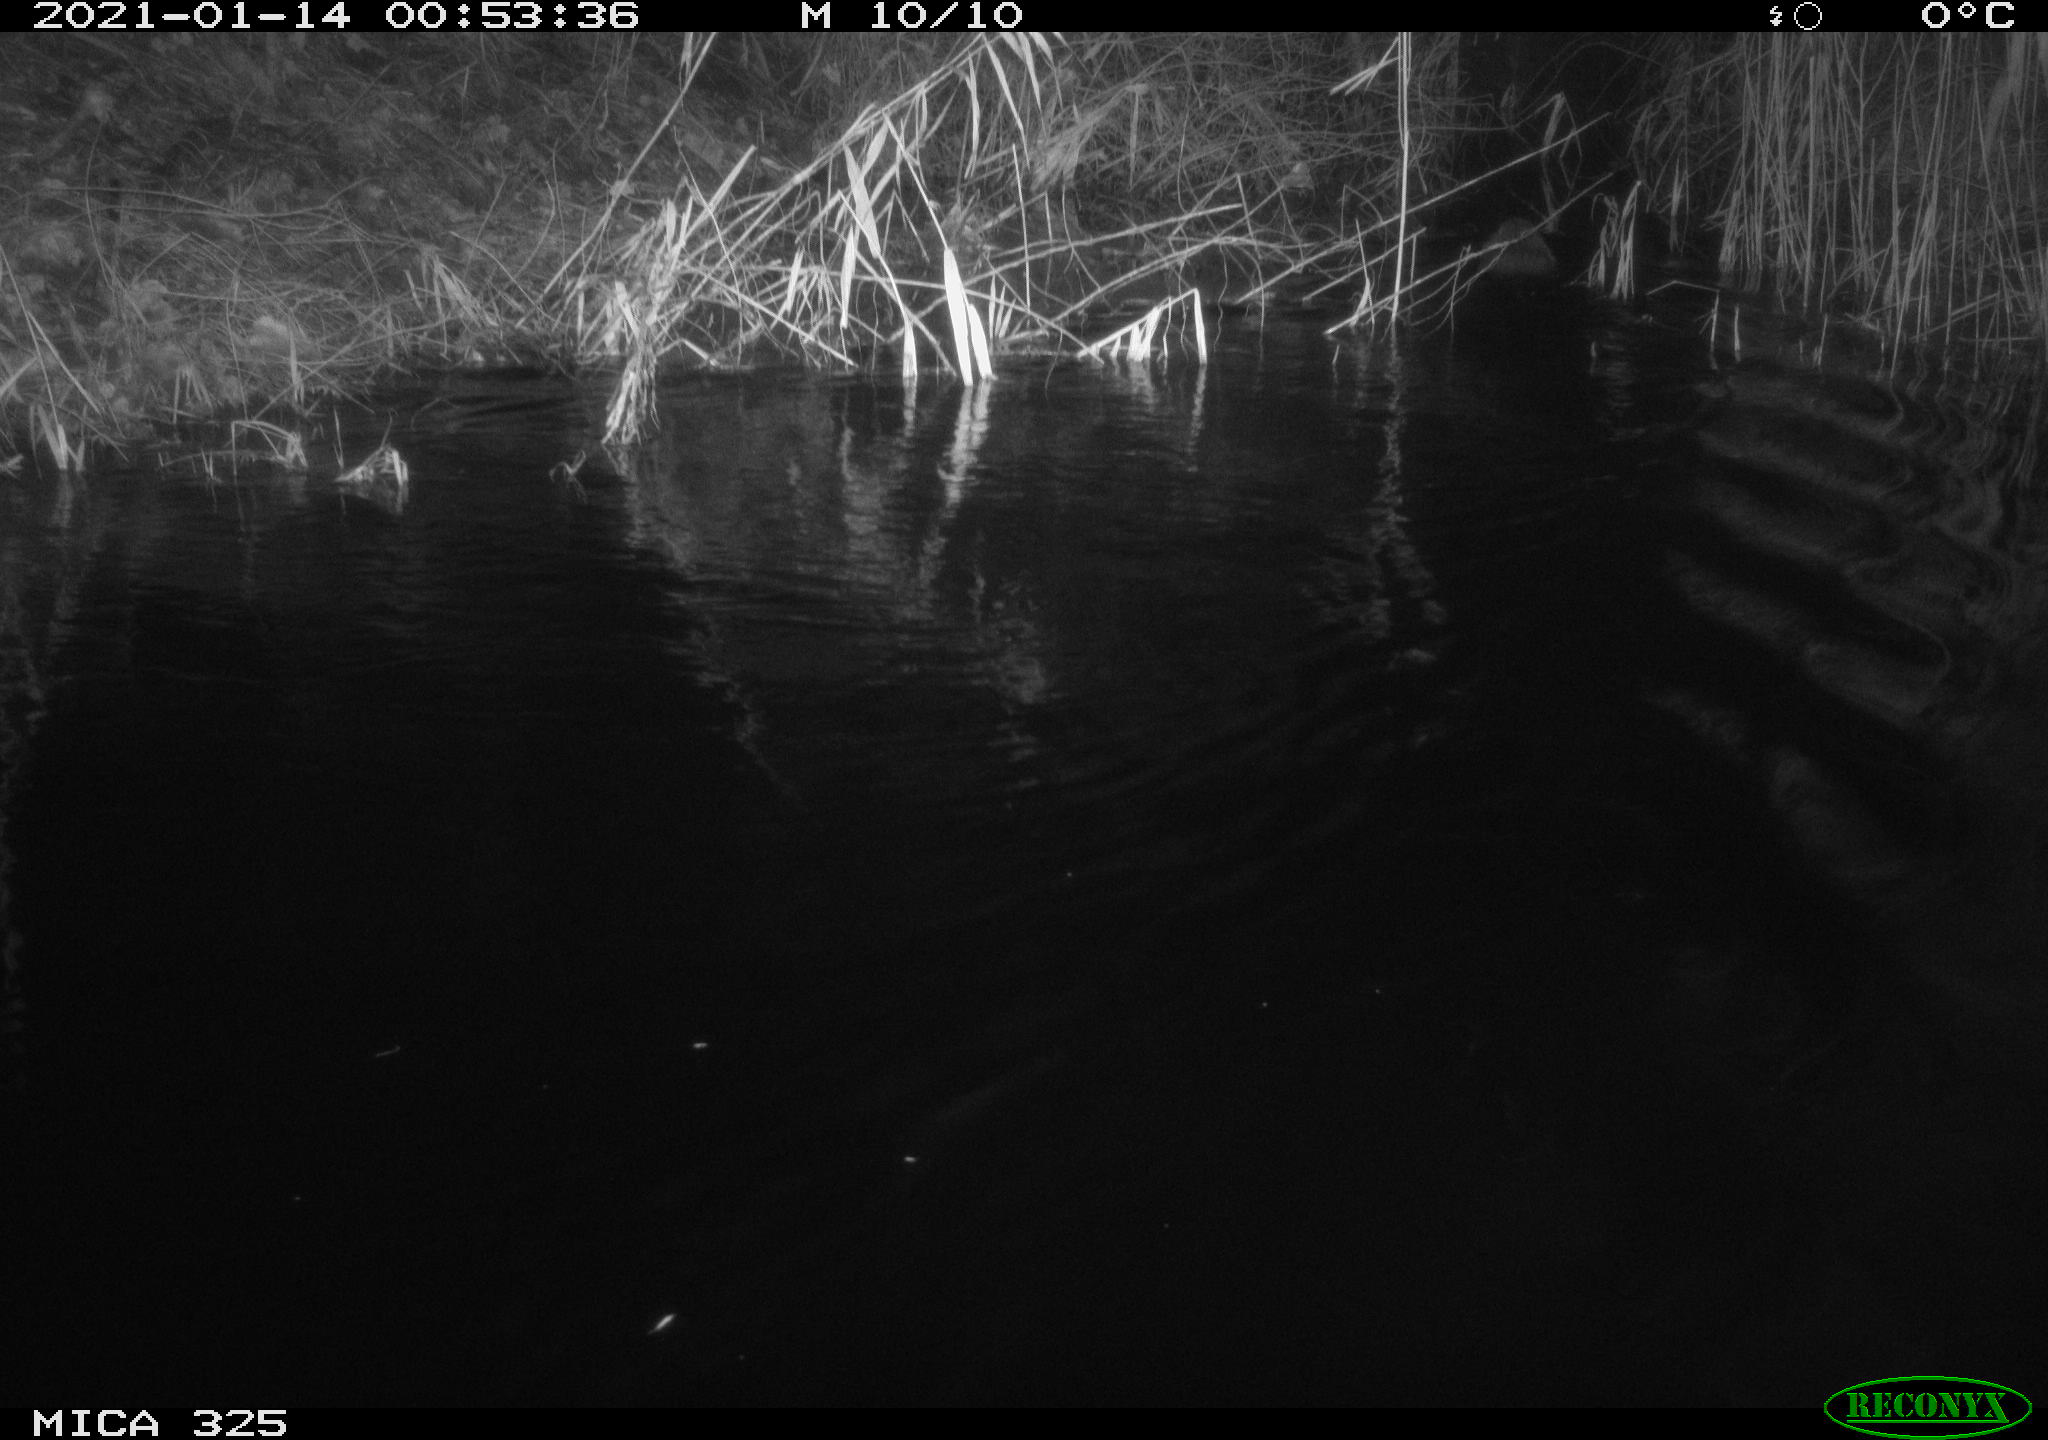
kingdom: Animalia
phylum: Chordata
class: Mammalia
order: Rodentia
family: Myocastoridae
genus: Myocastor
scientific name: Myocastor coypus
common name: Coypu
